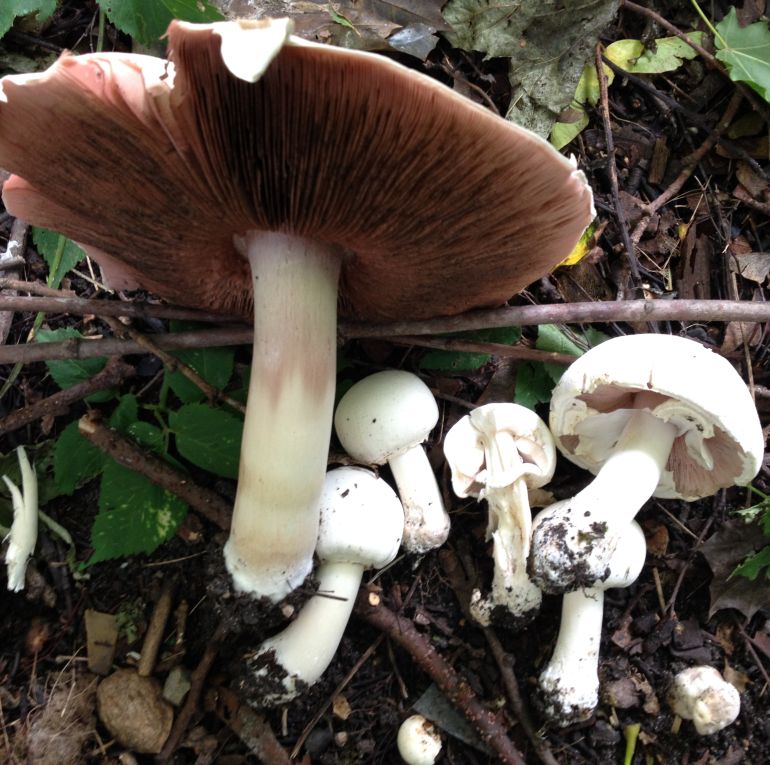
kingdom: Fungi
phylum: Basidiomycota
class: Agaricomycetes
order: Agaricales
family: Agaricaceae
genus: Agaricus
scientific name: Agaricus xanthodermus
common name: karbol-champignon
